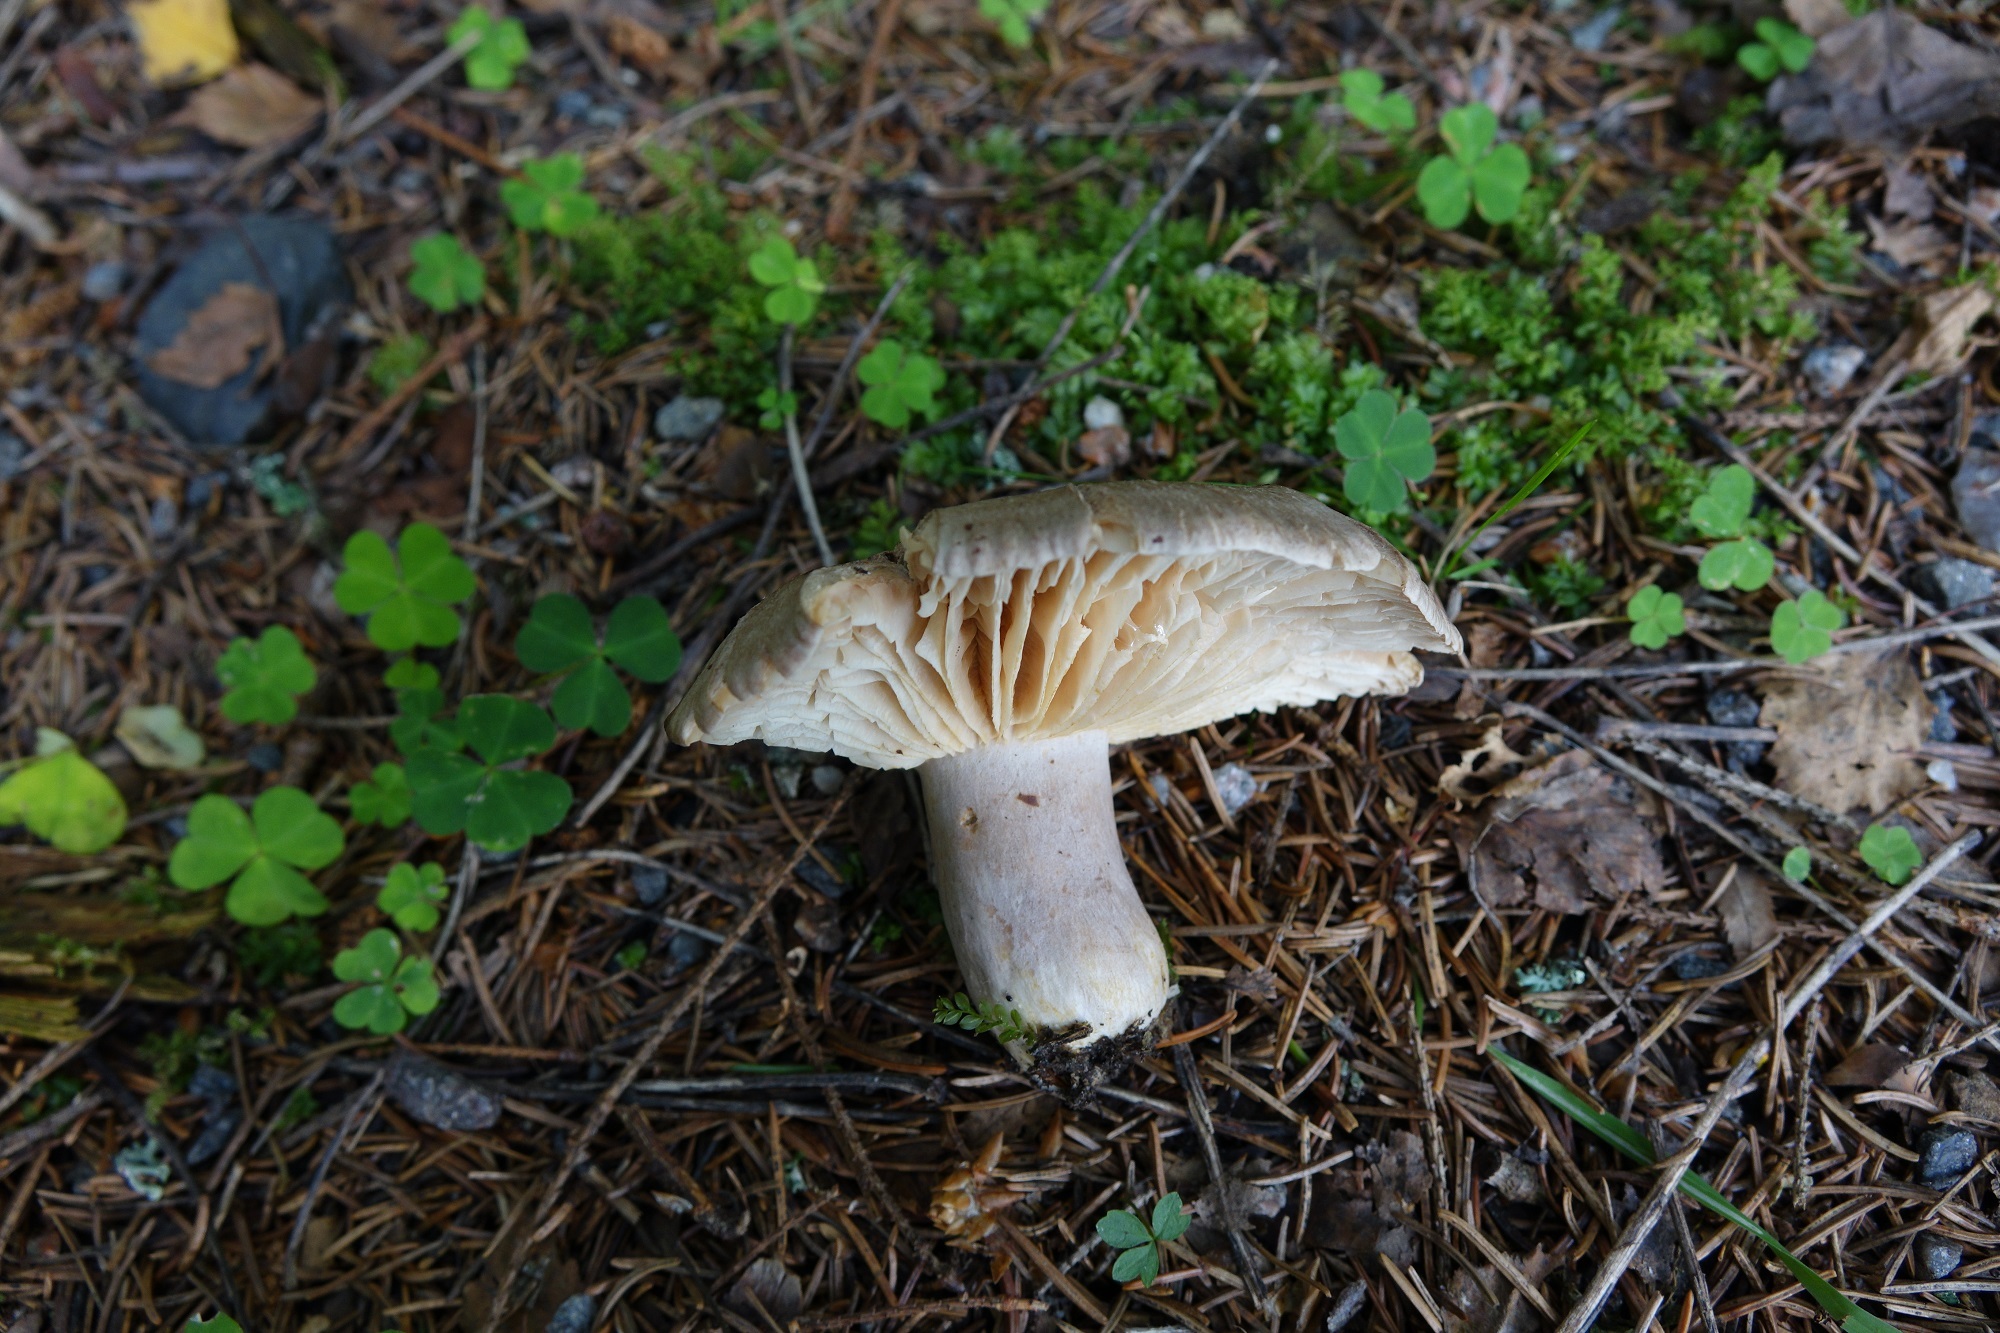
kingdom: Fungi
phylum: Basidiomycota
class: Agaricomycetes
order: Russulales
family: Russulaceae
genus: Lactarius
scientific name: Lactarius flexuosus
